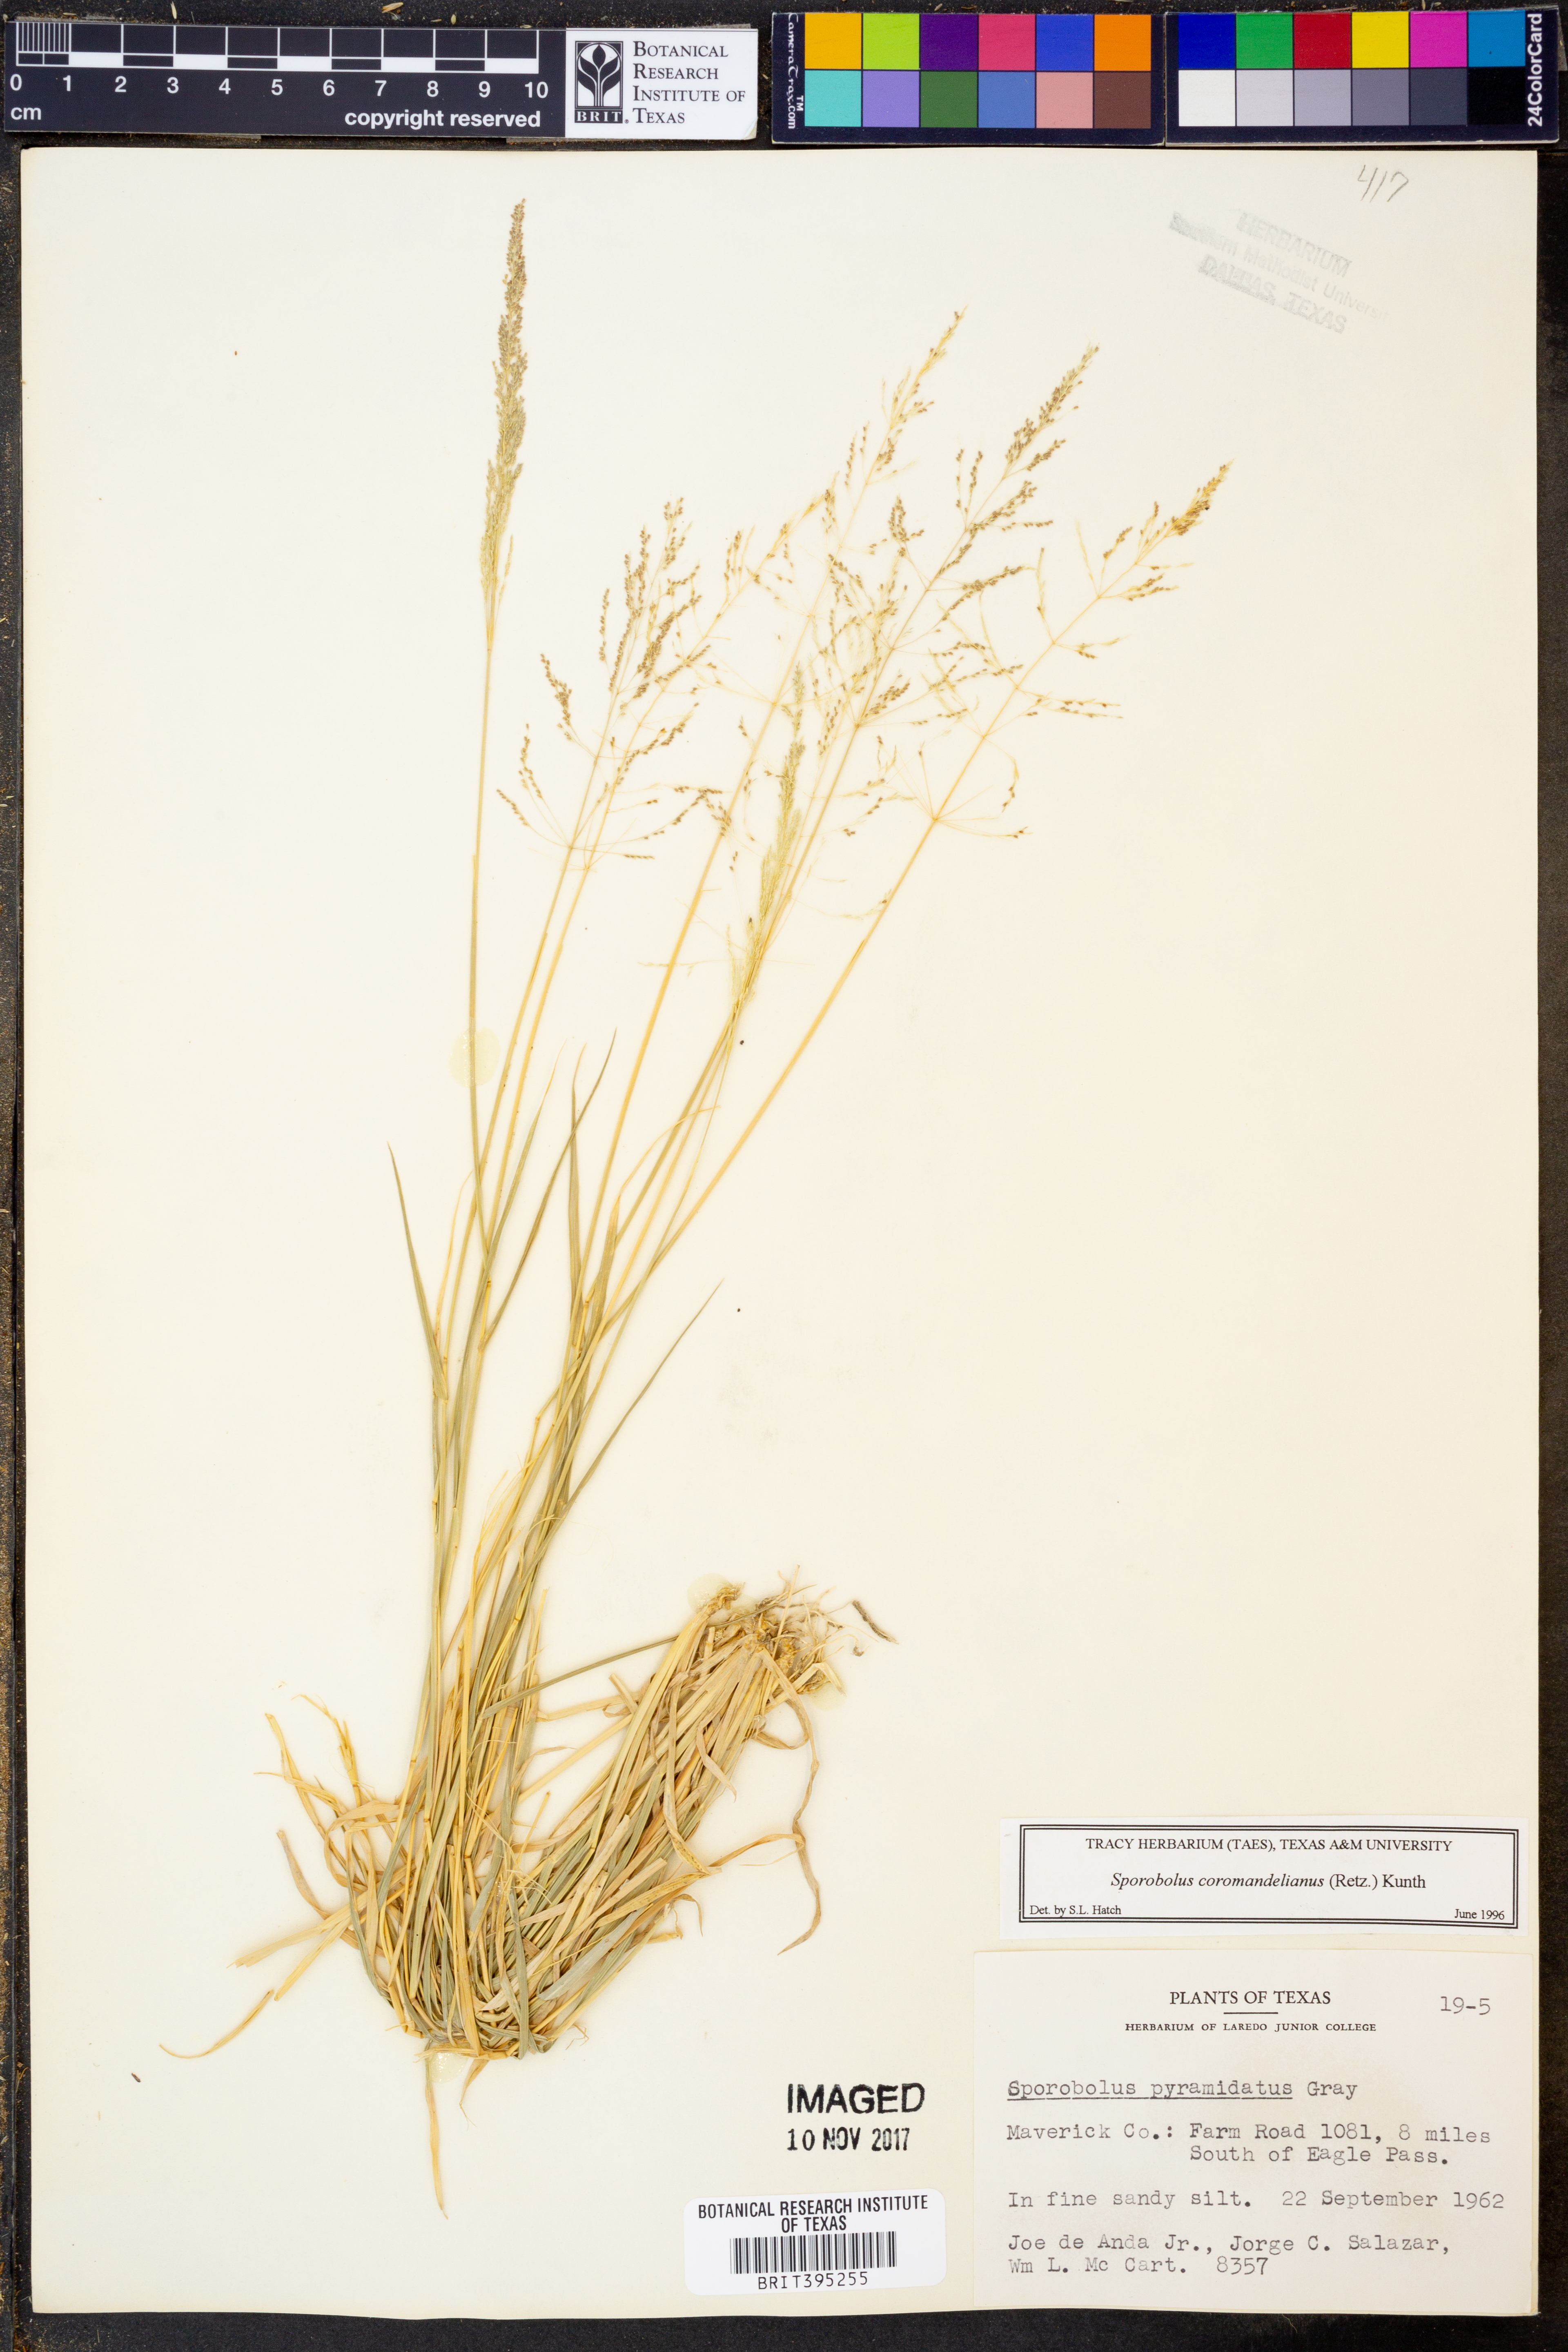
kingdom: Plantae
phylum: Tracheophyta
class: Liliopsida
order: Poales
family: Poaceae
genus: Sporobolus
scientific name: Sporobolus coromandelianus
